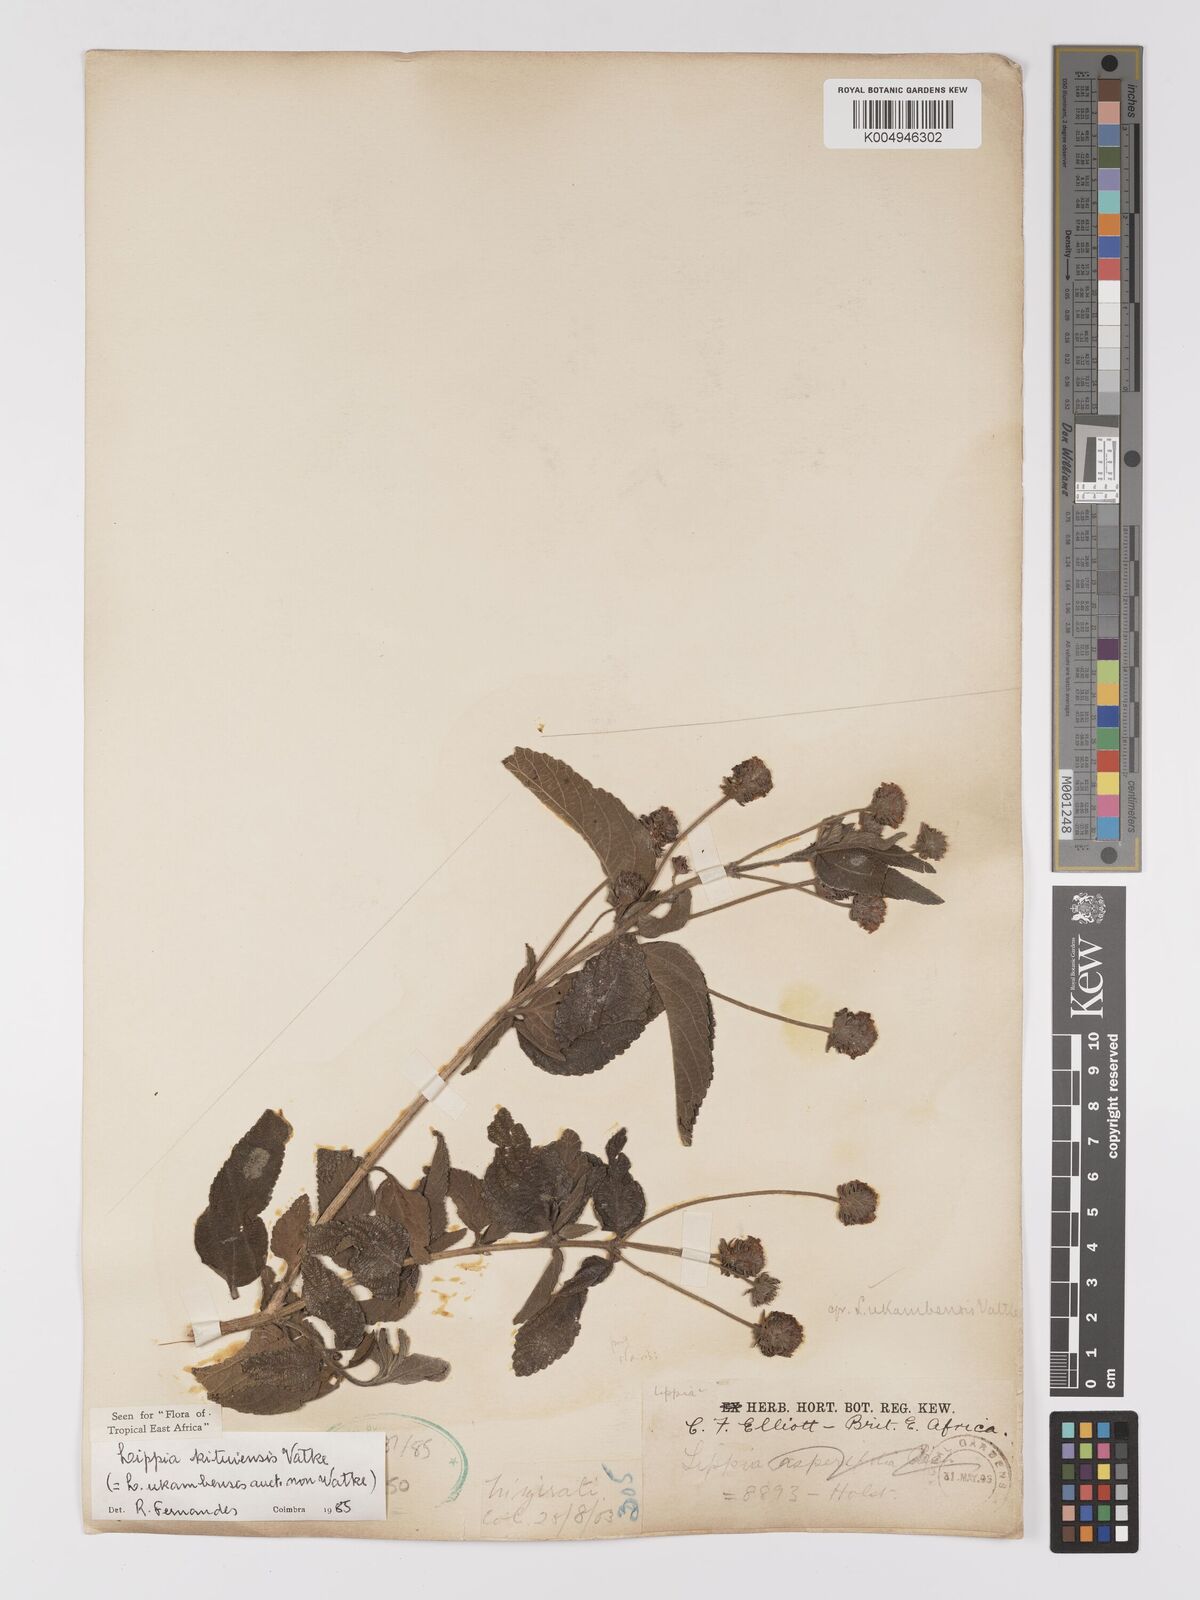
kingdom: Plantae
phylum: Tracheophyta
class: Magnoliopsida
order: Lamiales
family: Verbenaceae
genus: Lippia
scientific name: Lippia kituiensis
